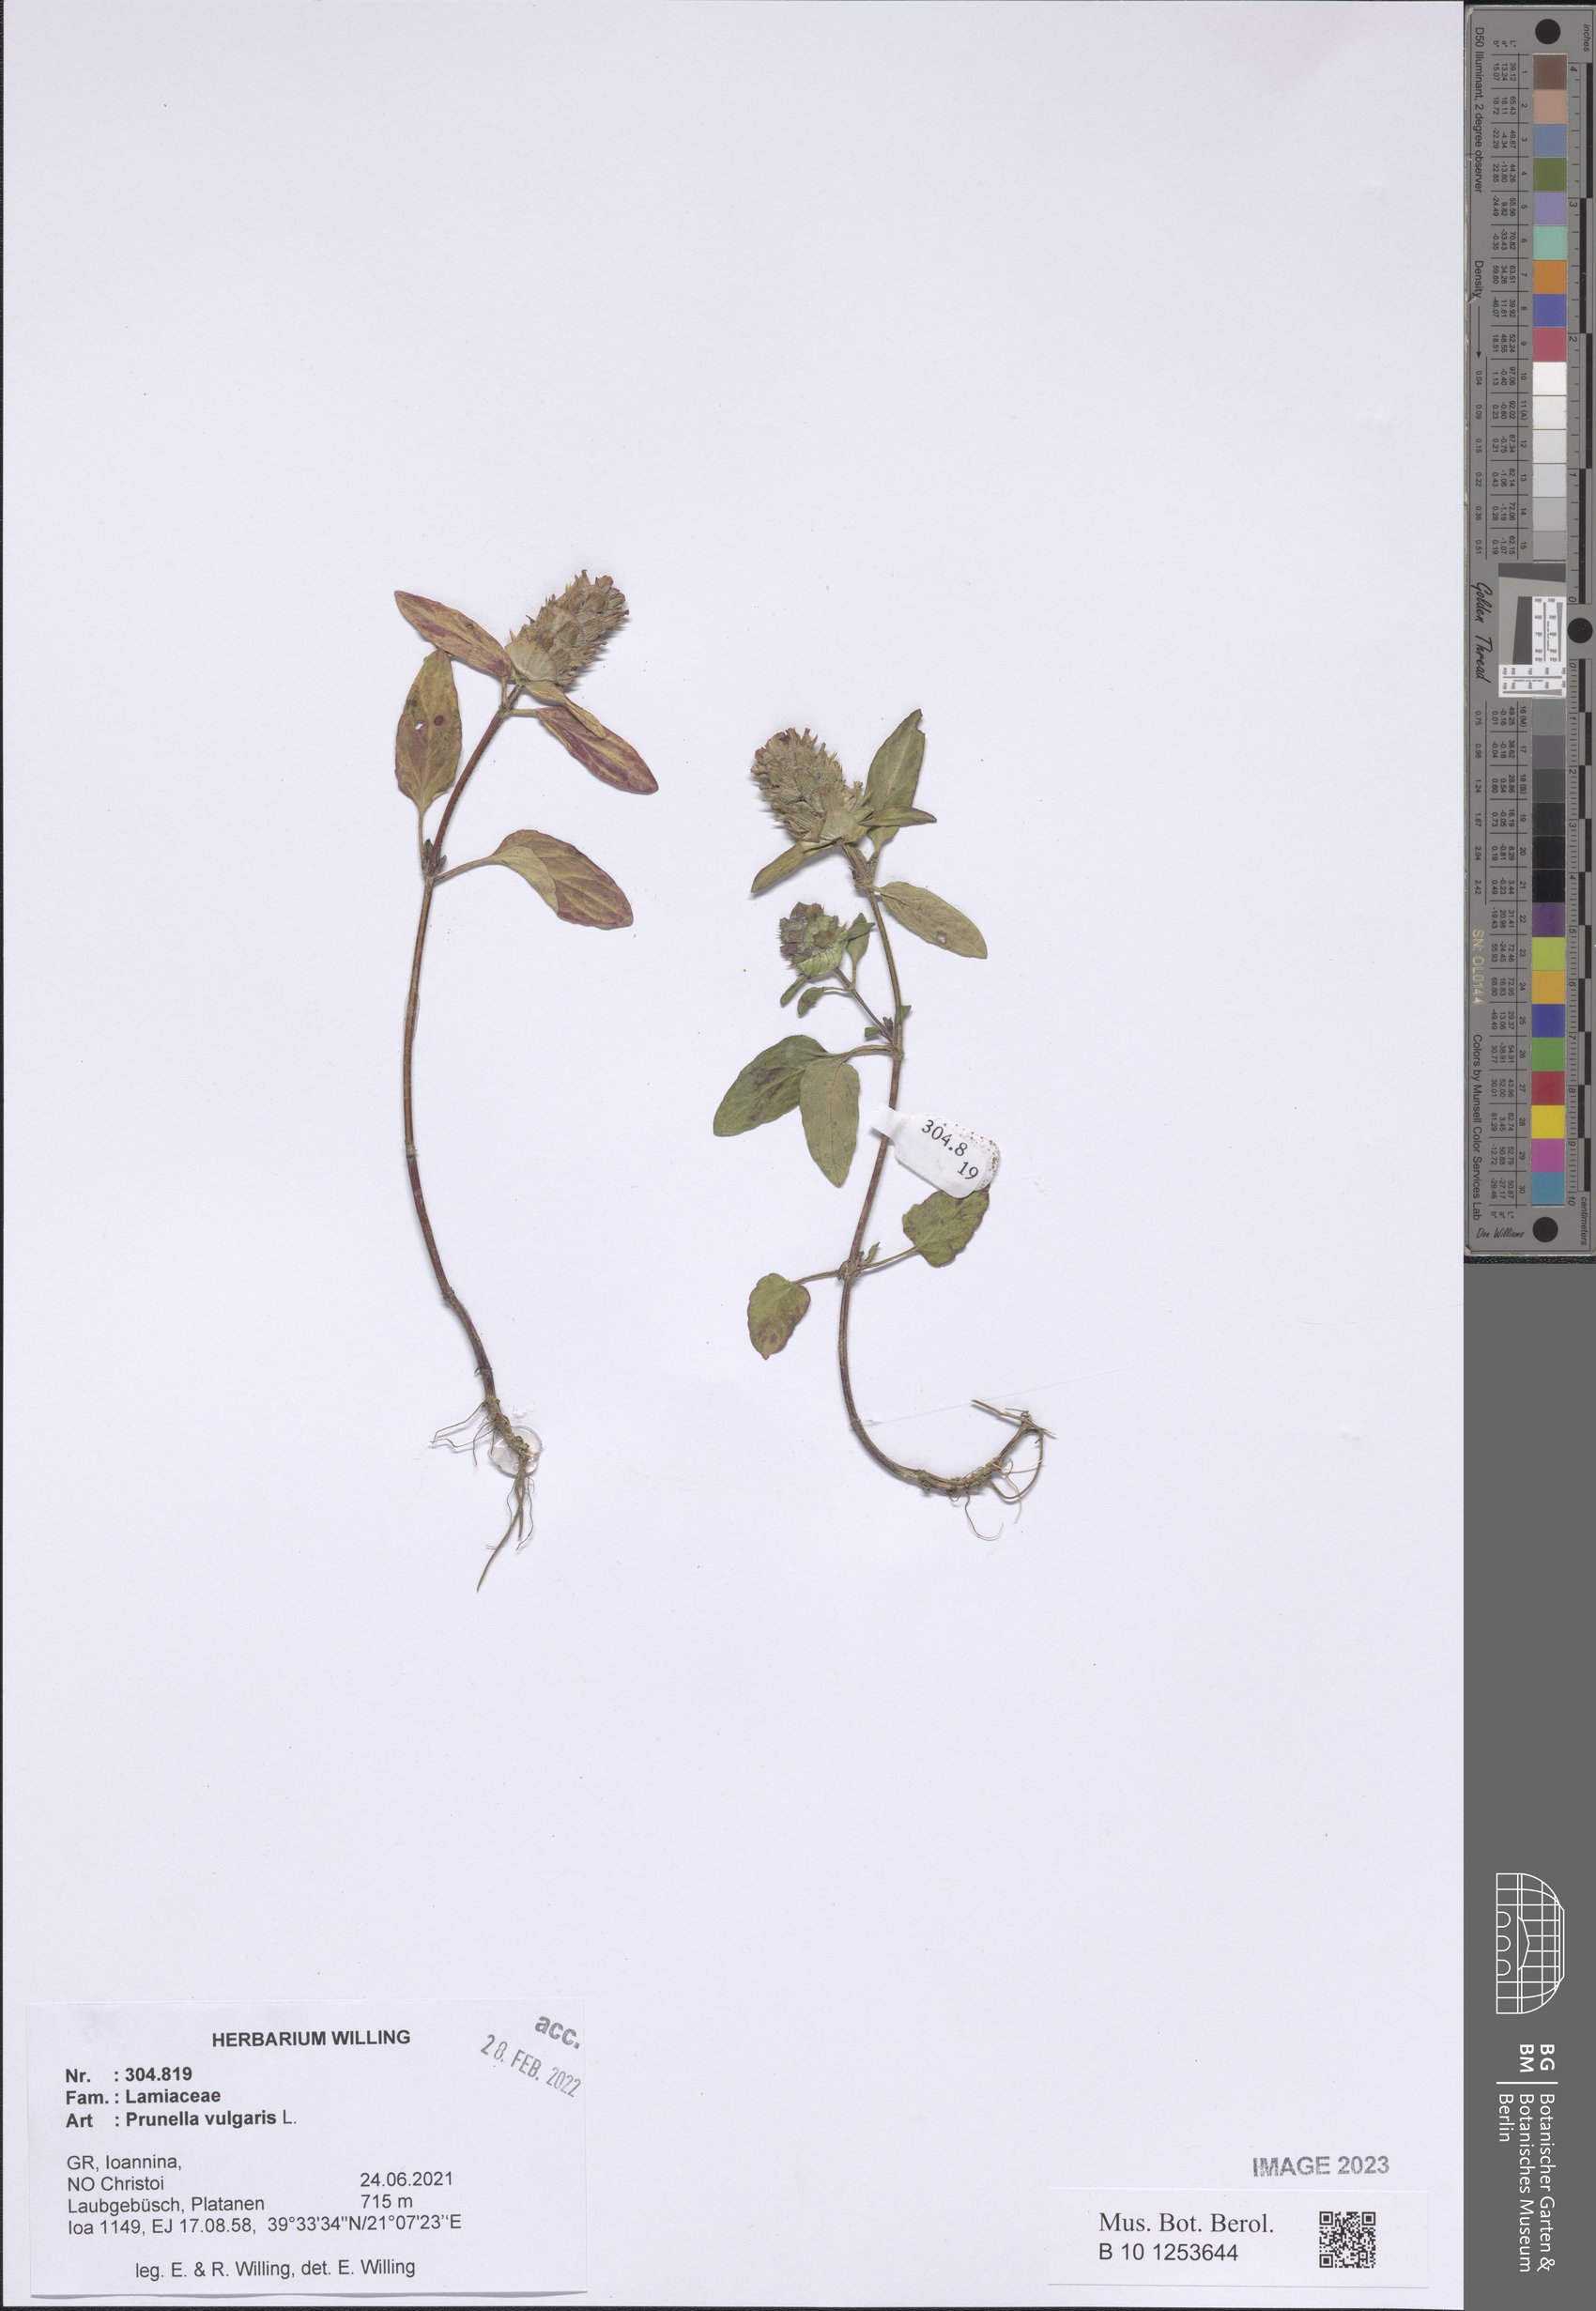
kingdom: Plantae
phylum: Tracheophyta
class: Magnoliopsida
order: Lamiales
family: Lamiaceae
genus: Prunella
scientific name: Prunella vulgaris
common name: Heal-all
